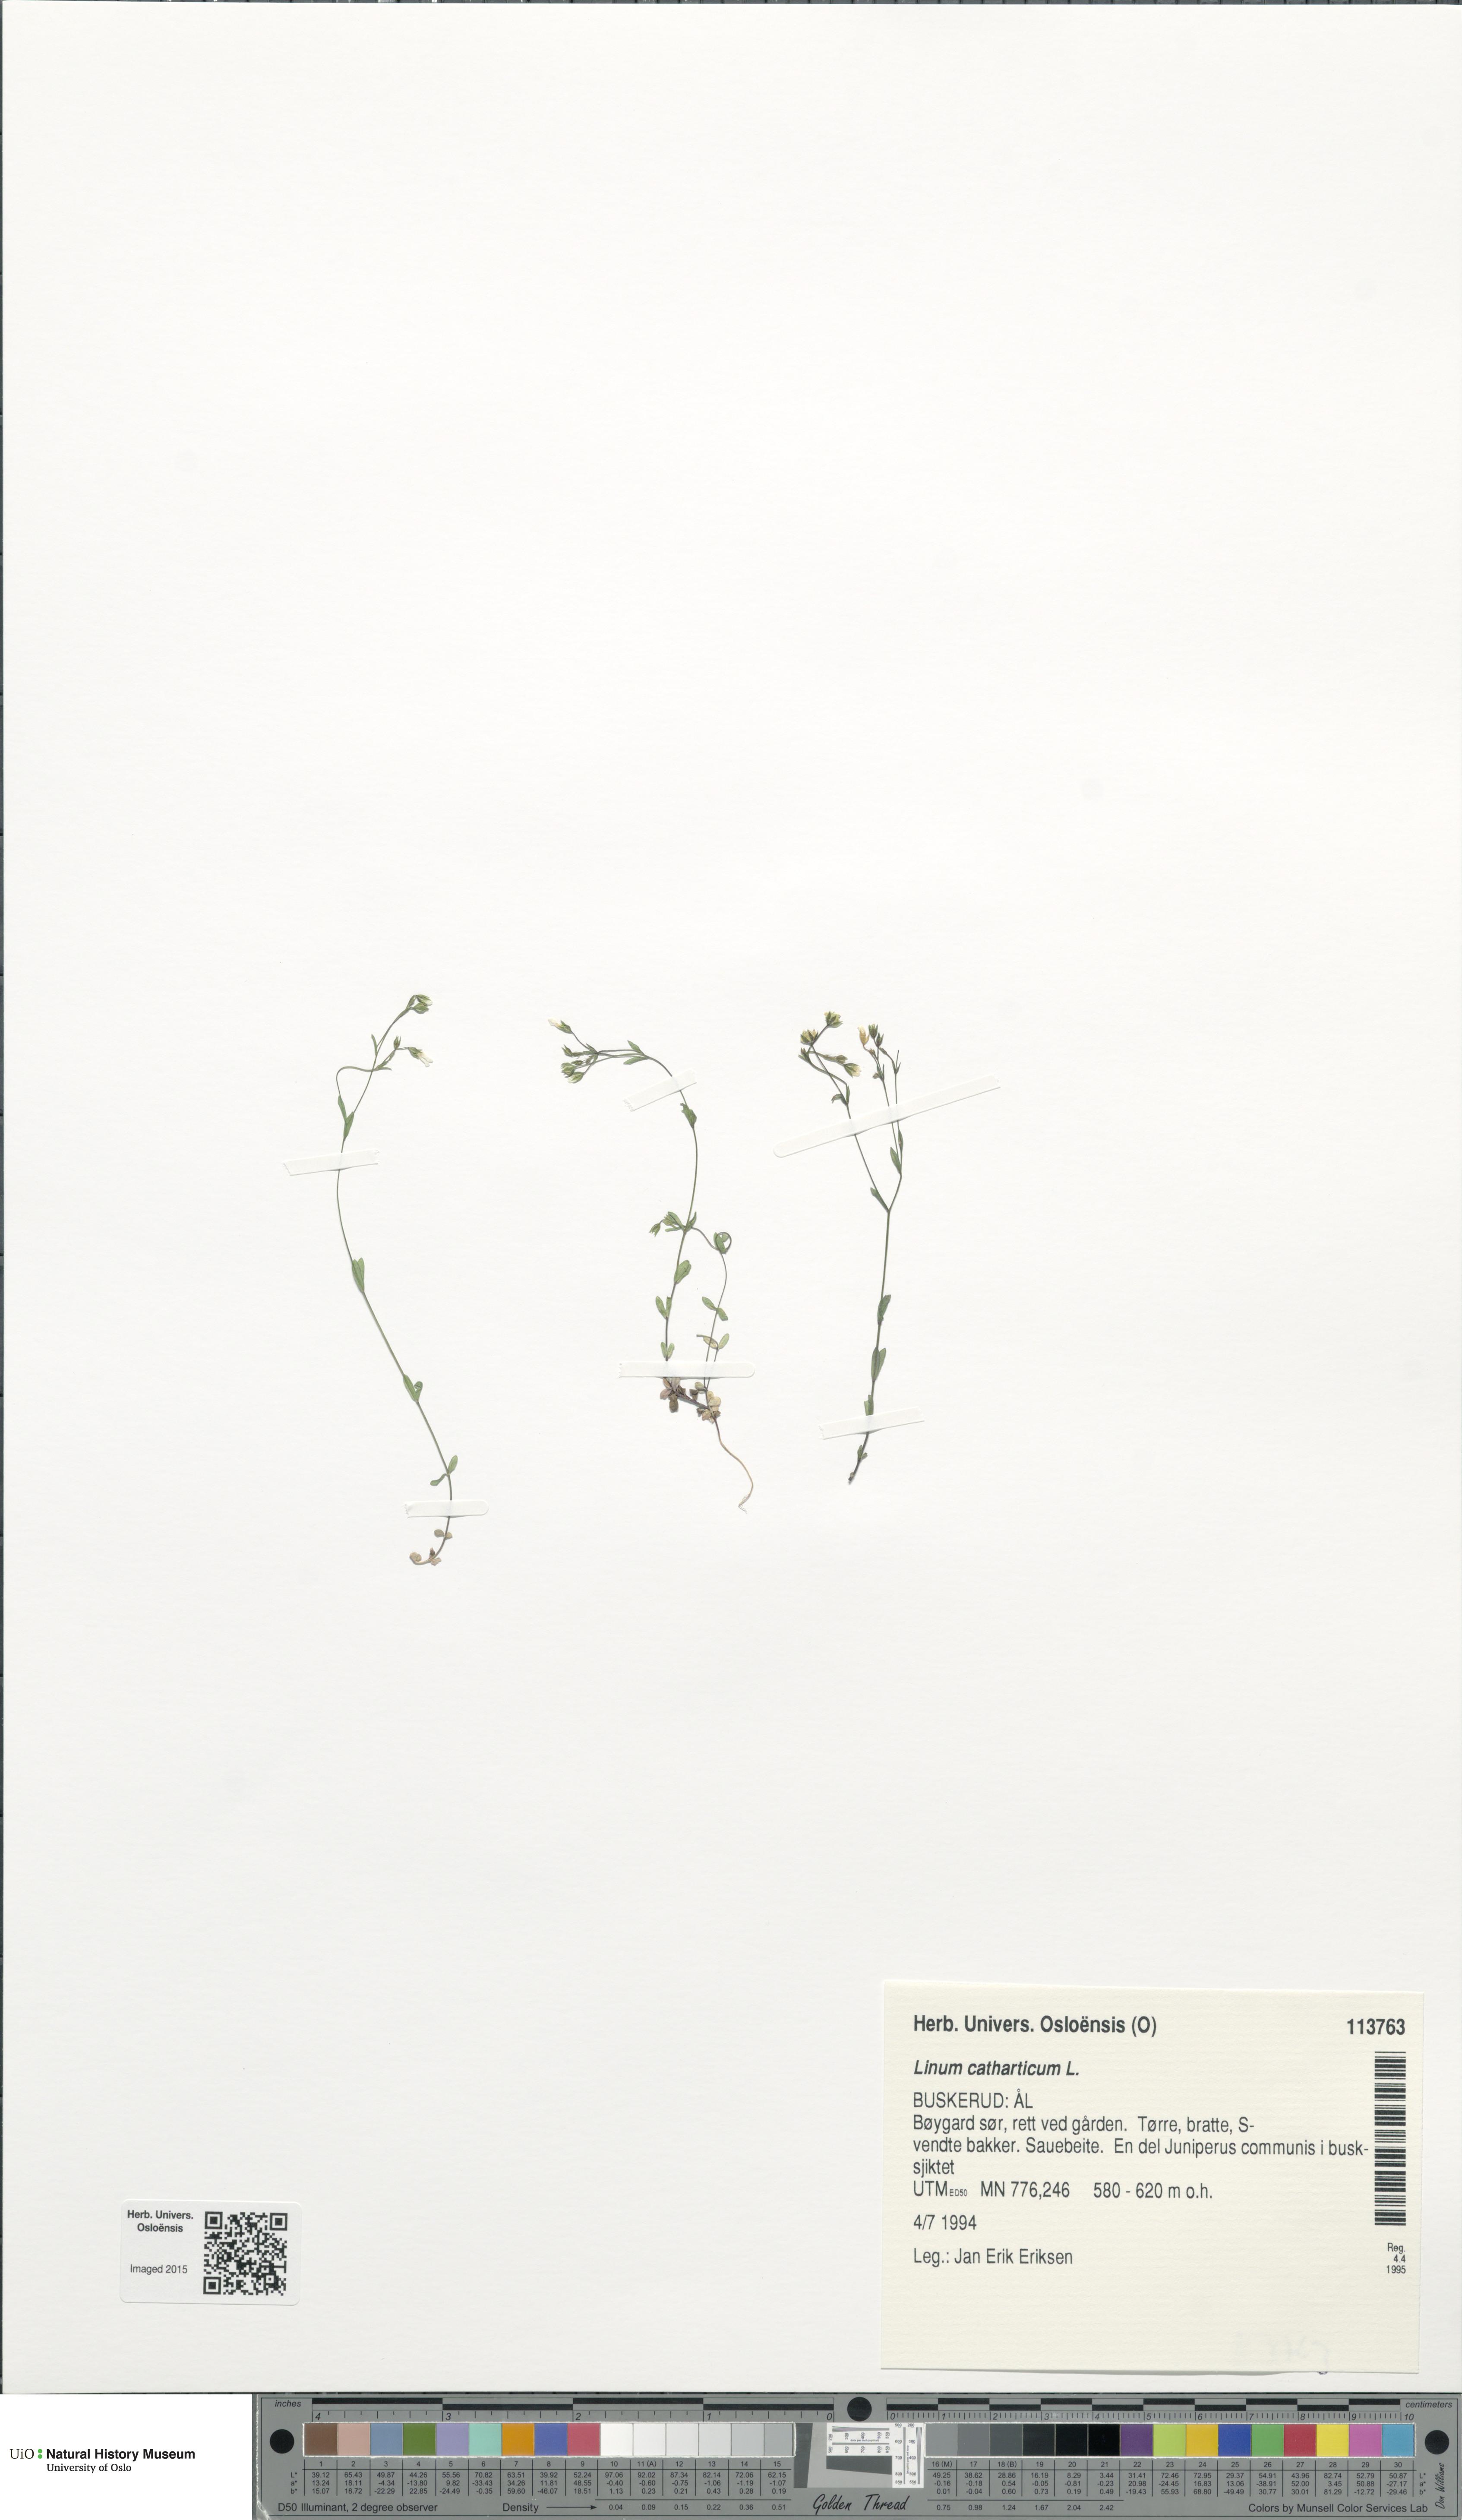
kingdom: Plantae
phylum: Tracheophyta
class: Magnoliopsida
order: Malpighiales
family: Linaceae
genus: Linum
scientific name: Linum catharticum
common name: Fairy flax
